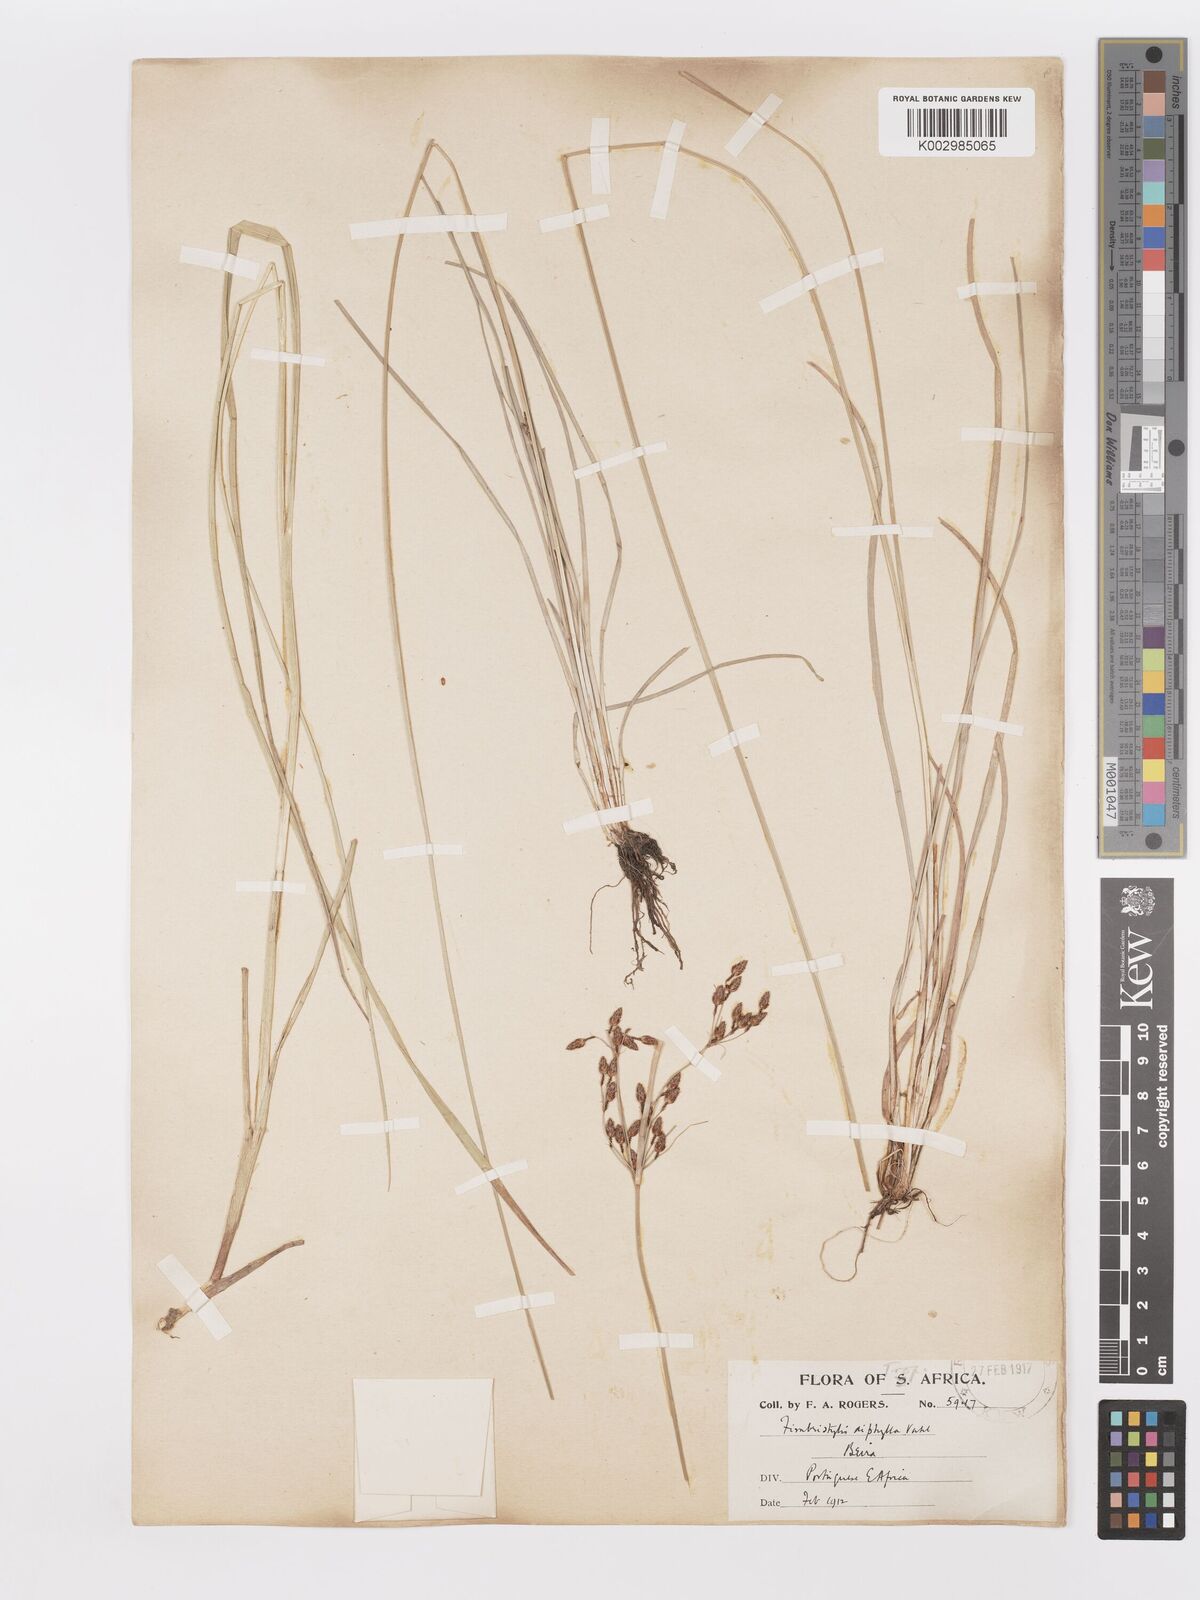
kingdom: Plantae
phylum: Tracheophyta
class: Liliopsida
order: Poales
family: Cyperaceae
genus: Fimbristylis
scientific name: Fimbristylis dichotoma
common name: Forked fimbry
